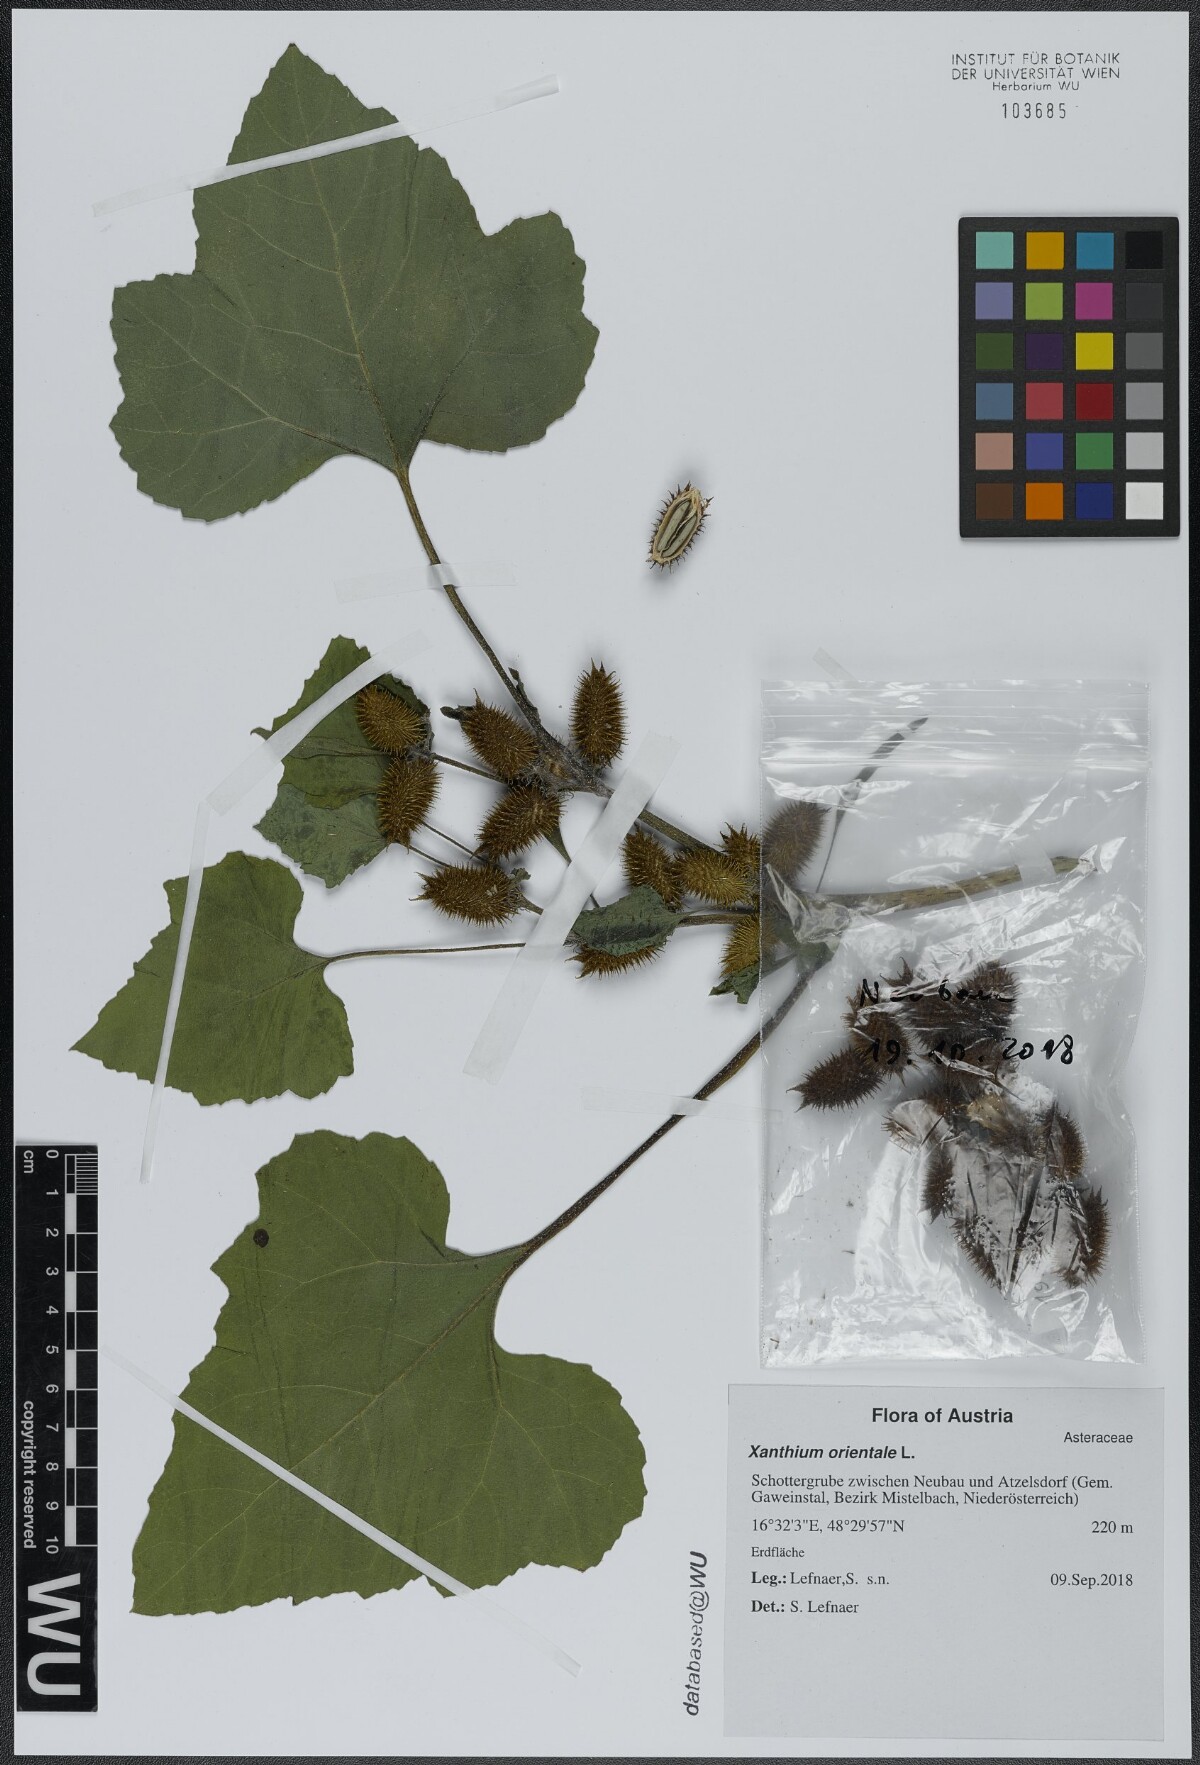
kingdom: Plantae
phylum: Tracheophyta
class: Magnoliopsida
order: Asterales
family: Asteraceae
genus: Xanthium
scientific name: Xanthium orientale
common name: Californian burr
